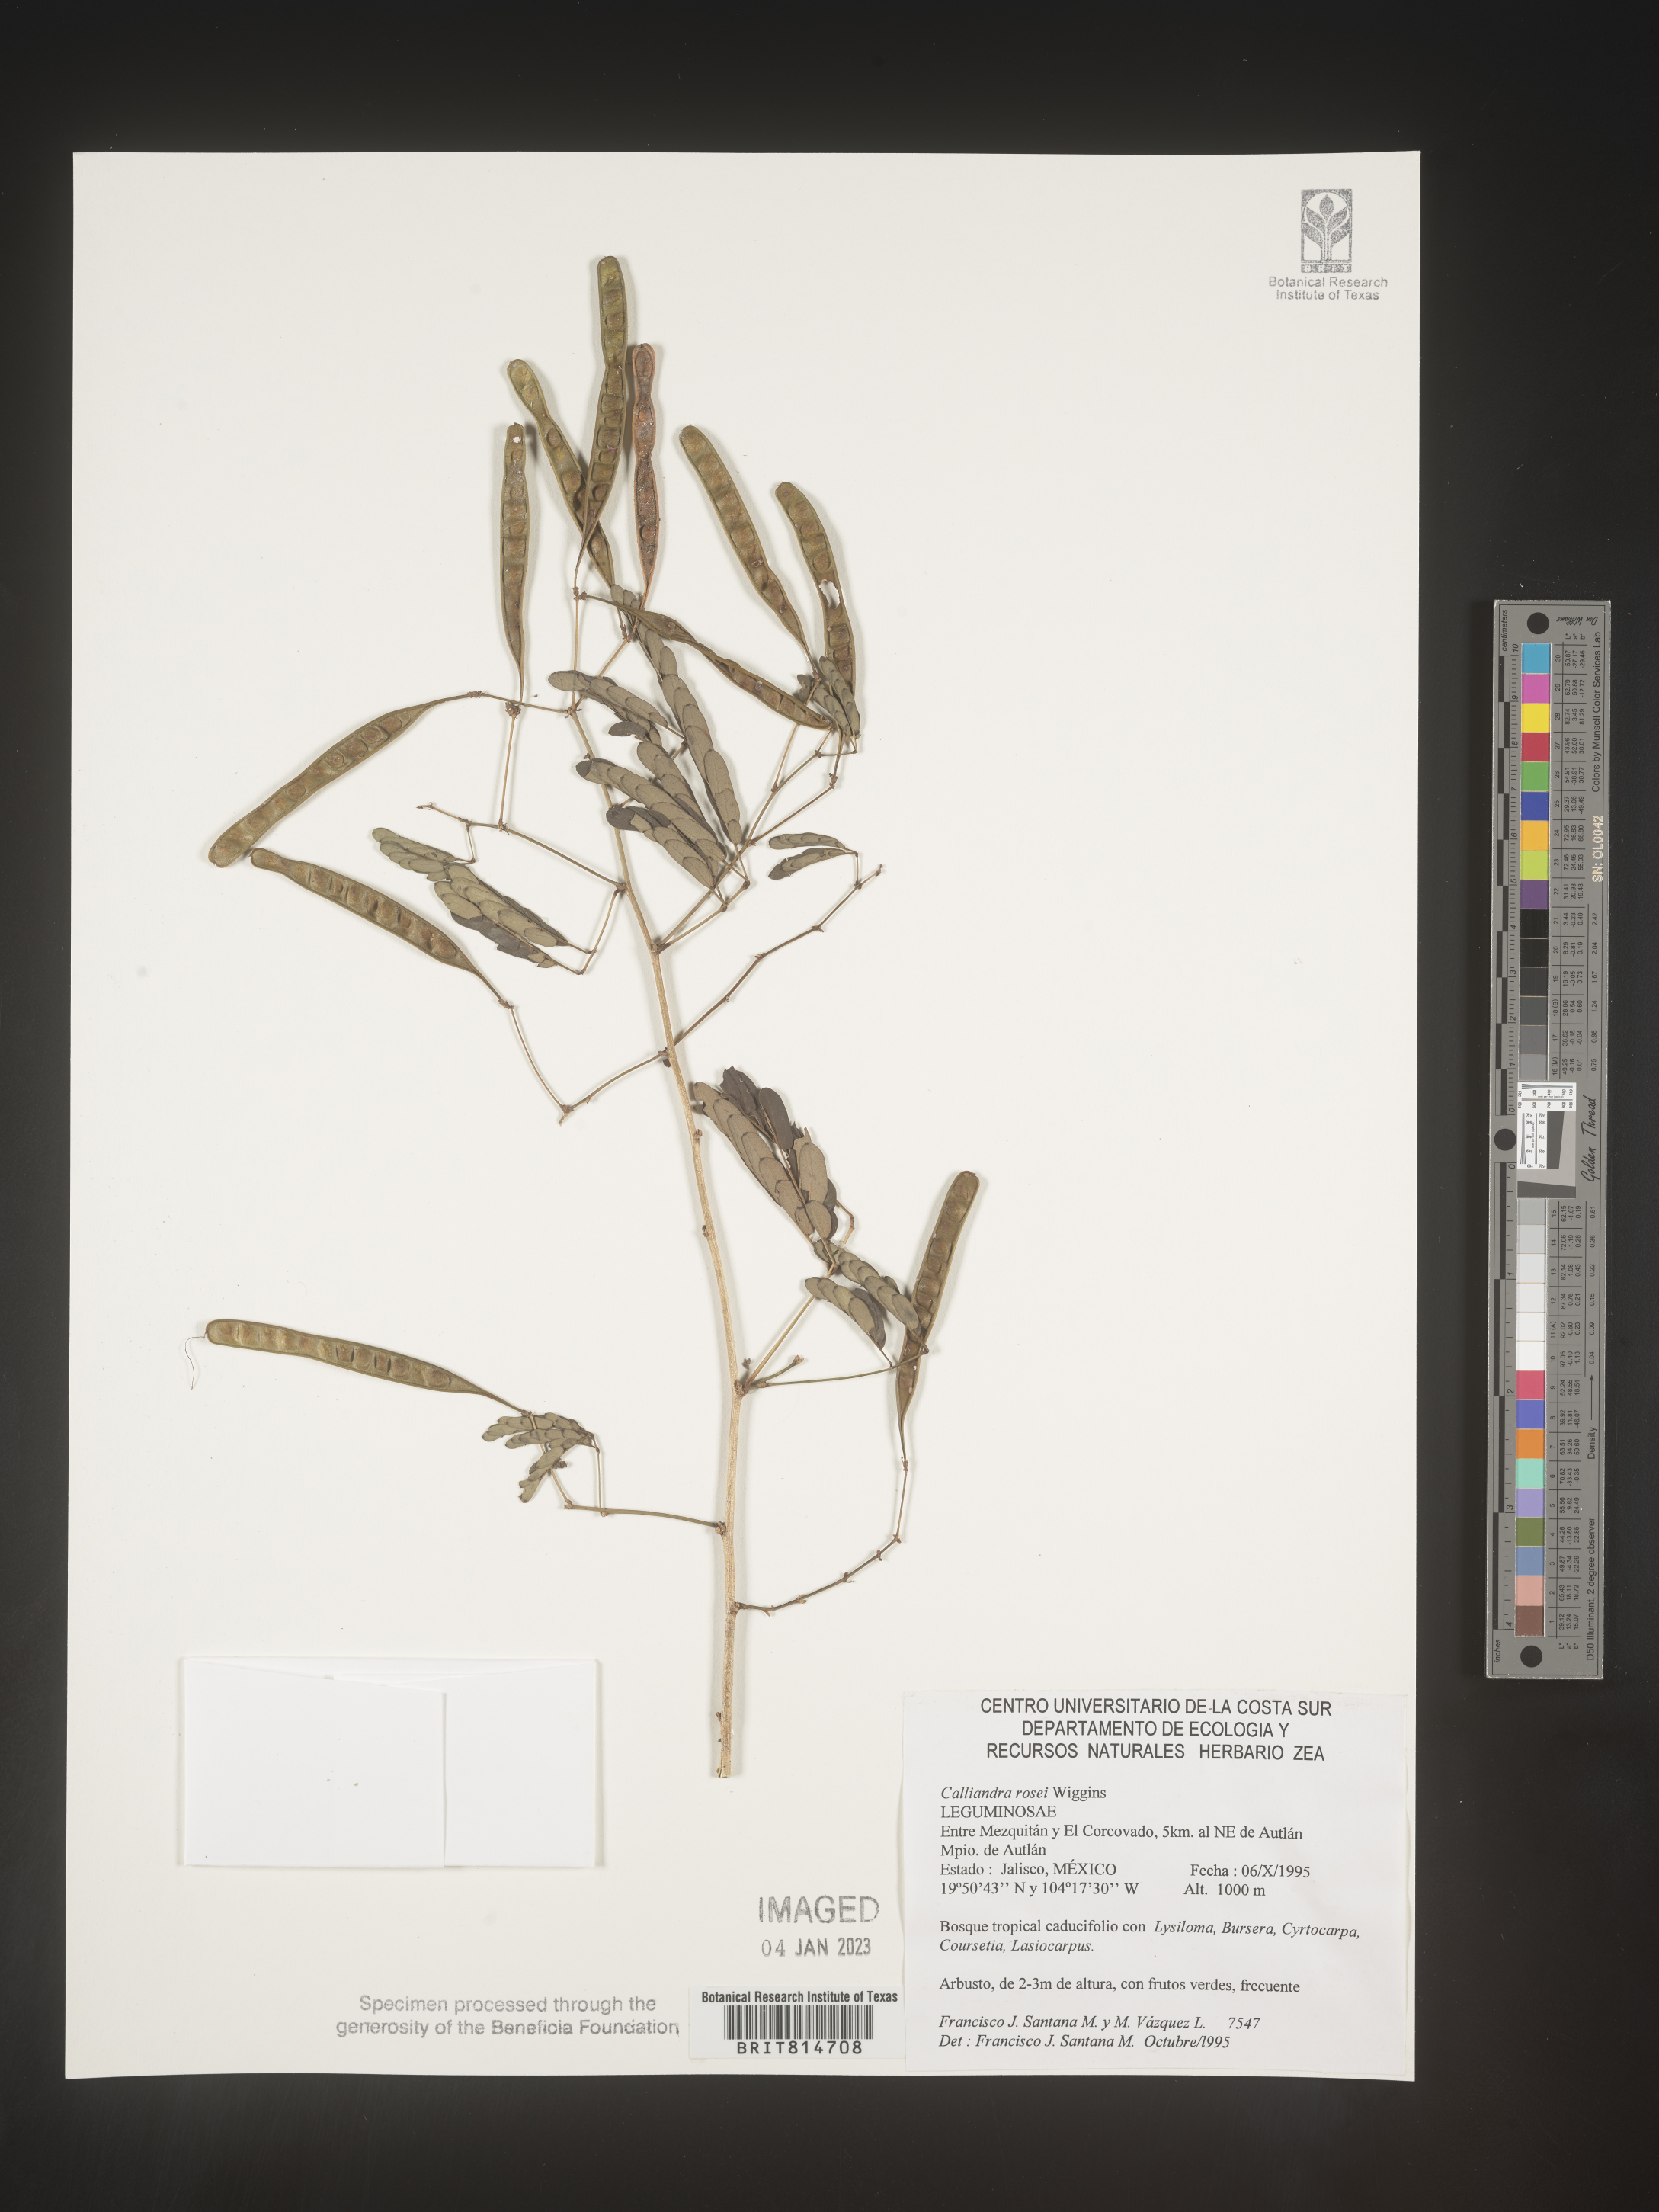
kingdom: Plantae
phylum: Tracheophyta
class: Magnoliopsida
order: Fabales
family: Fabaceae
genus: Calliandra
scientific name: Calliandra
